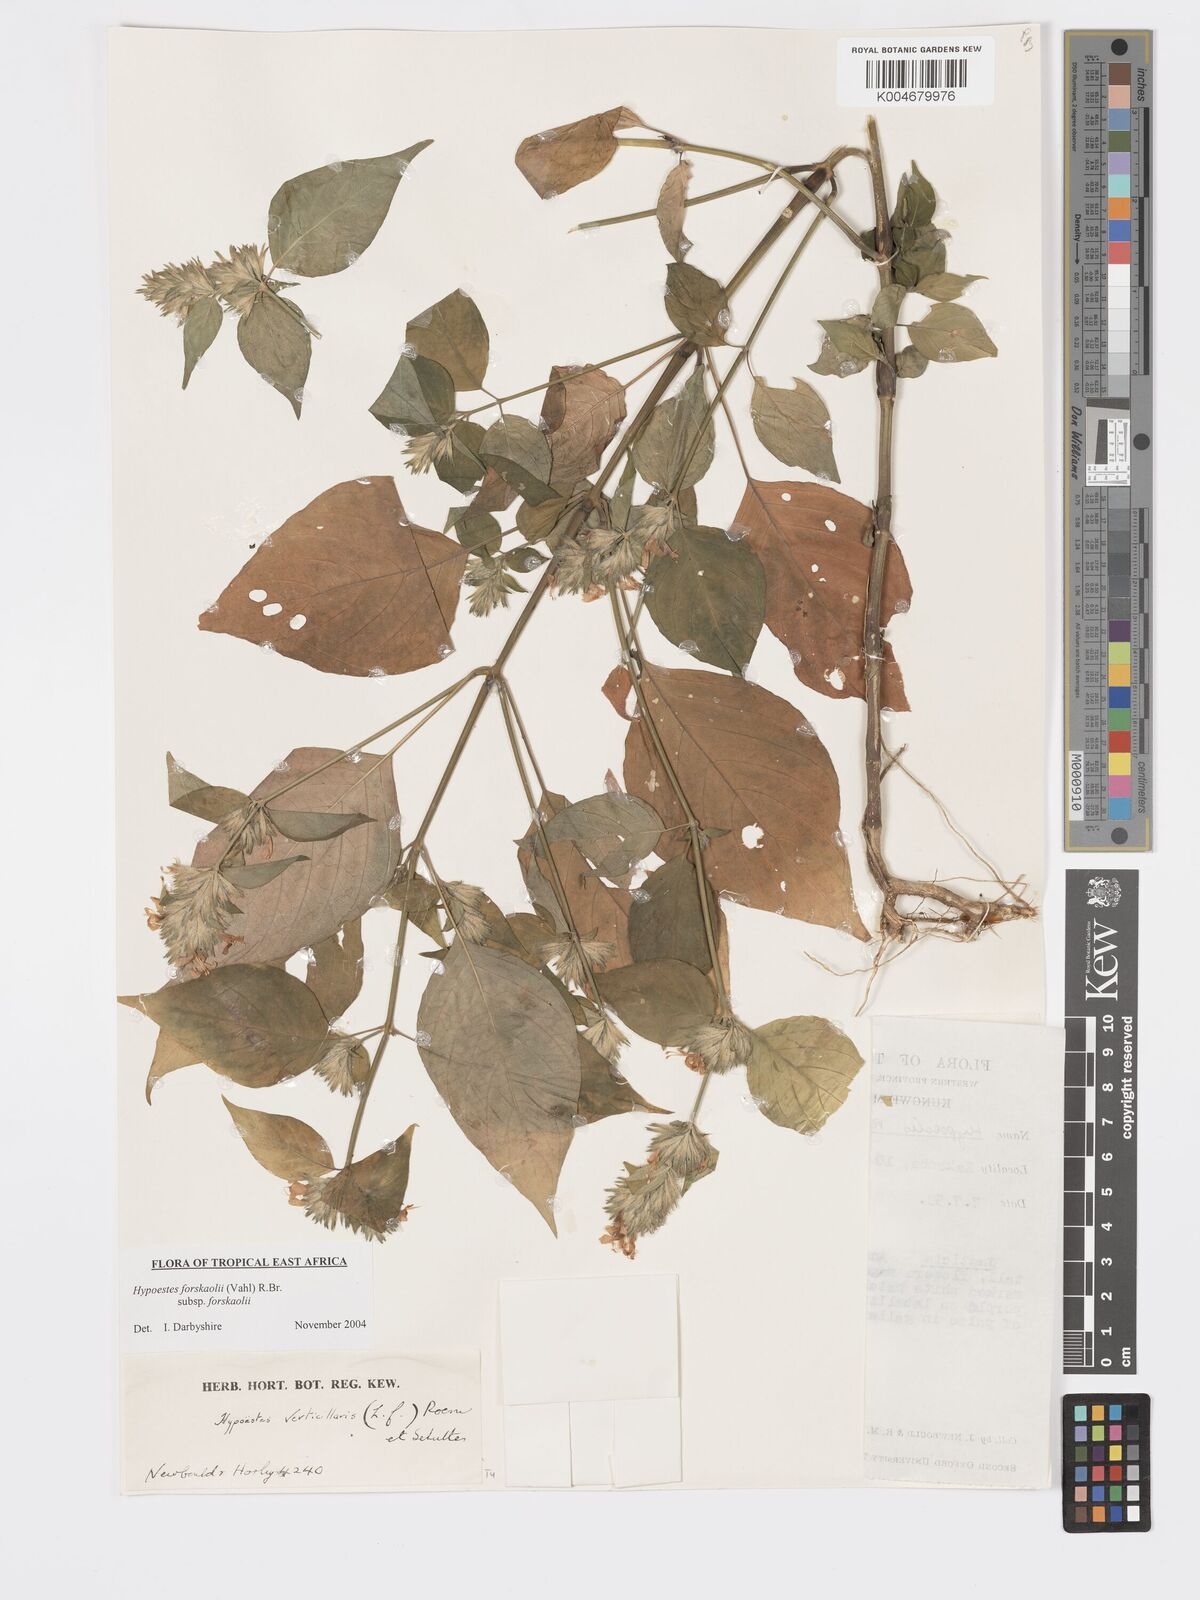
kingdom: Plantae
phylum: Tracheophyta
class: Magnoliopsida
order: Lamiales
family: Acanthaceae
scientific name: Acanthaceae
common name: Acanthaceae
